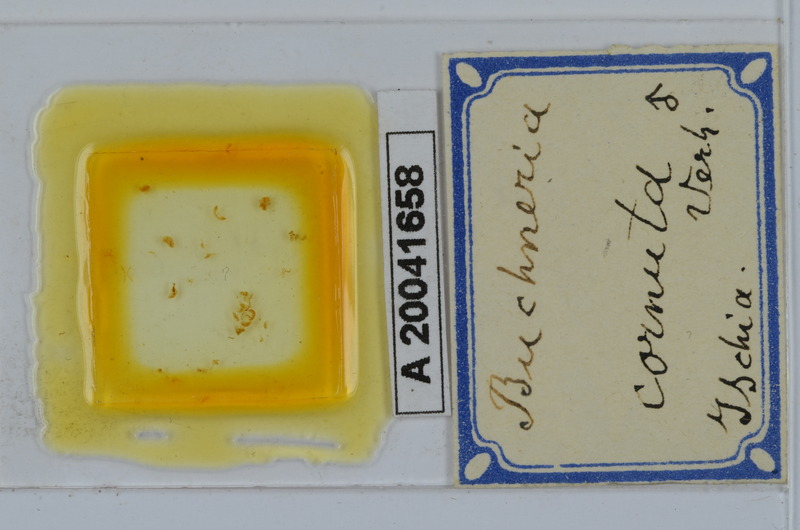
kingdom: Animalia
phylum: Arthropoda
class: Diplopoda
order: Julida
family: Julidae
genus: Buchneria
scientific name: Buchneria cornuta
